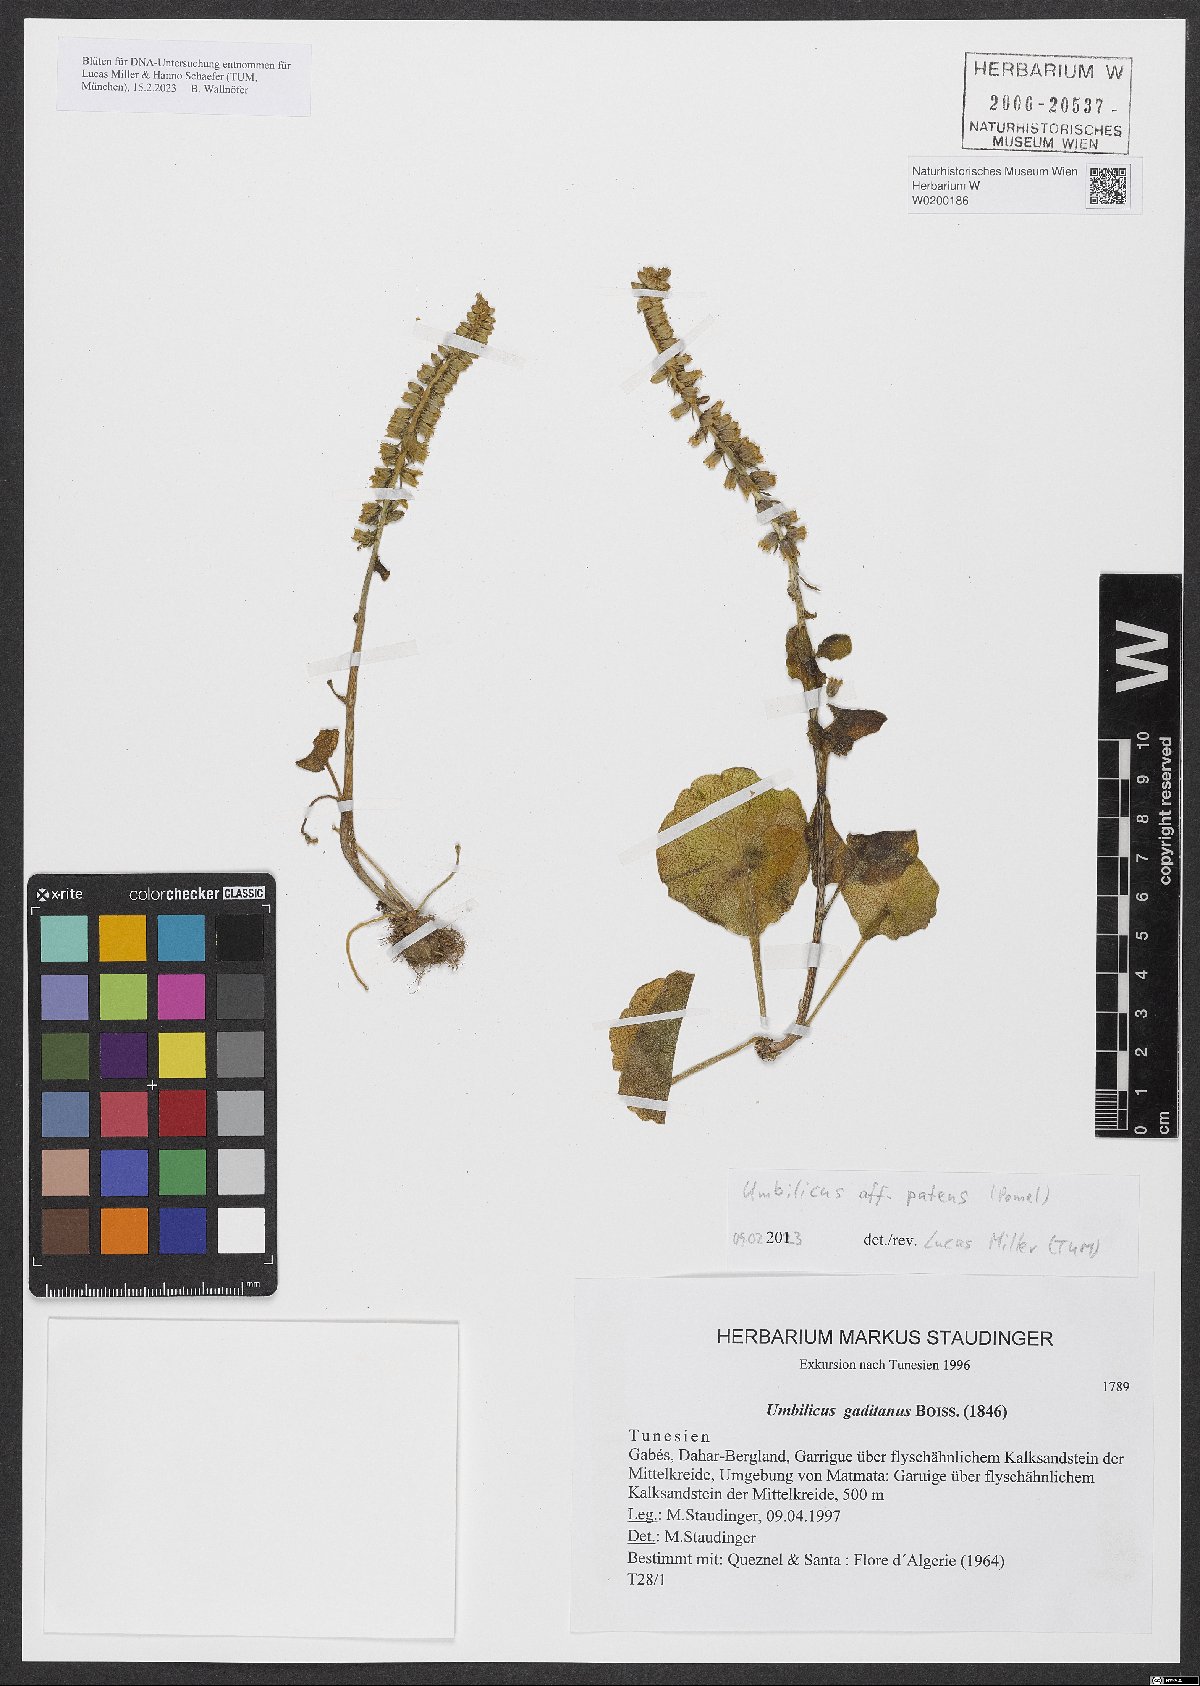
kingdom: Plantae
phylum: Tracheophyta
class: Magnoliopsida
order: Saxifragales
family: Crassulaceae
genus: Umbilicus
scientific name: Umbilicus patens
